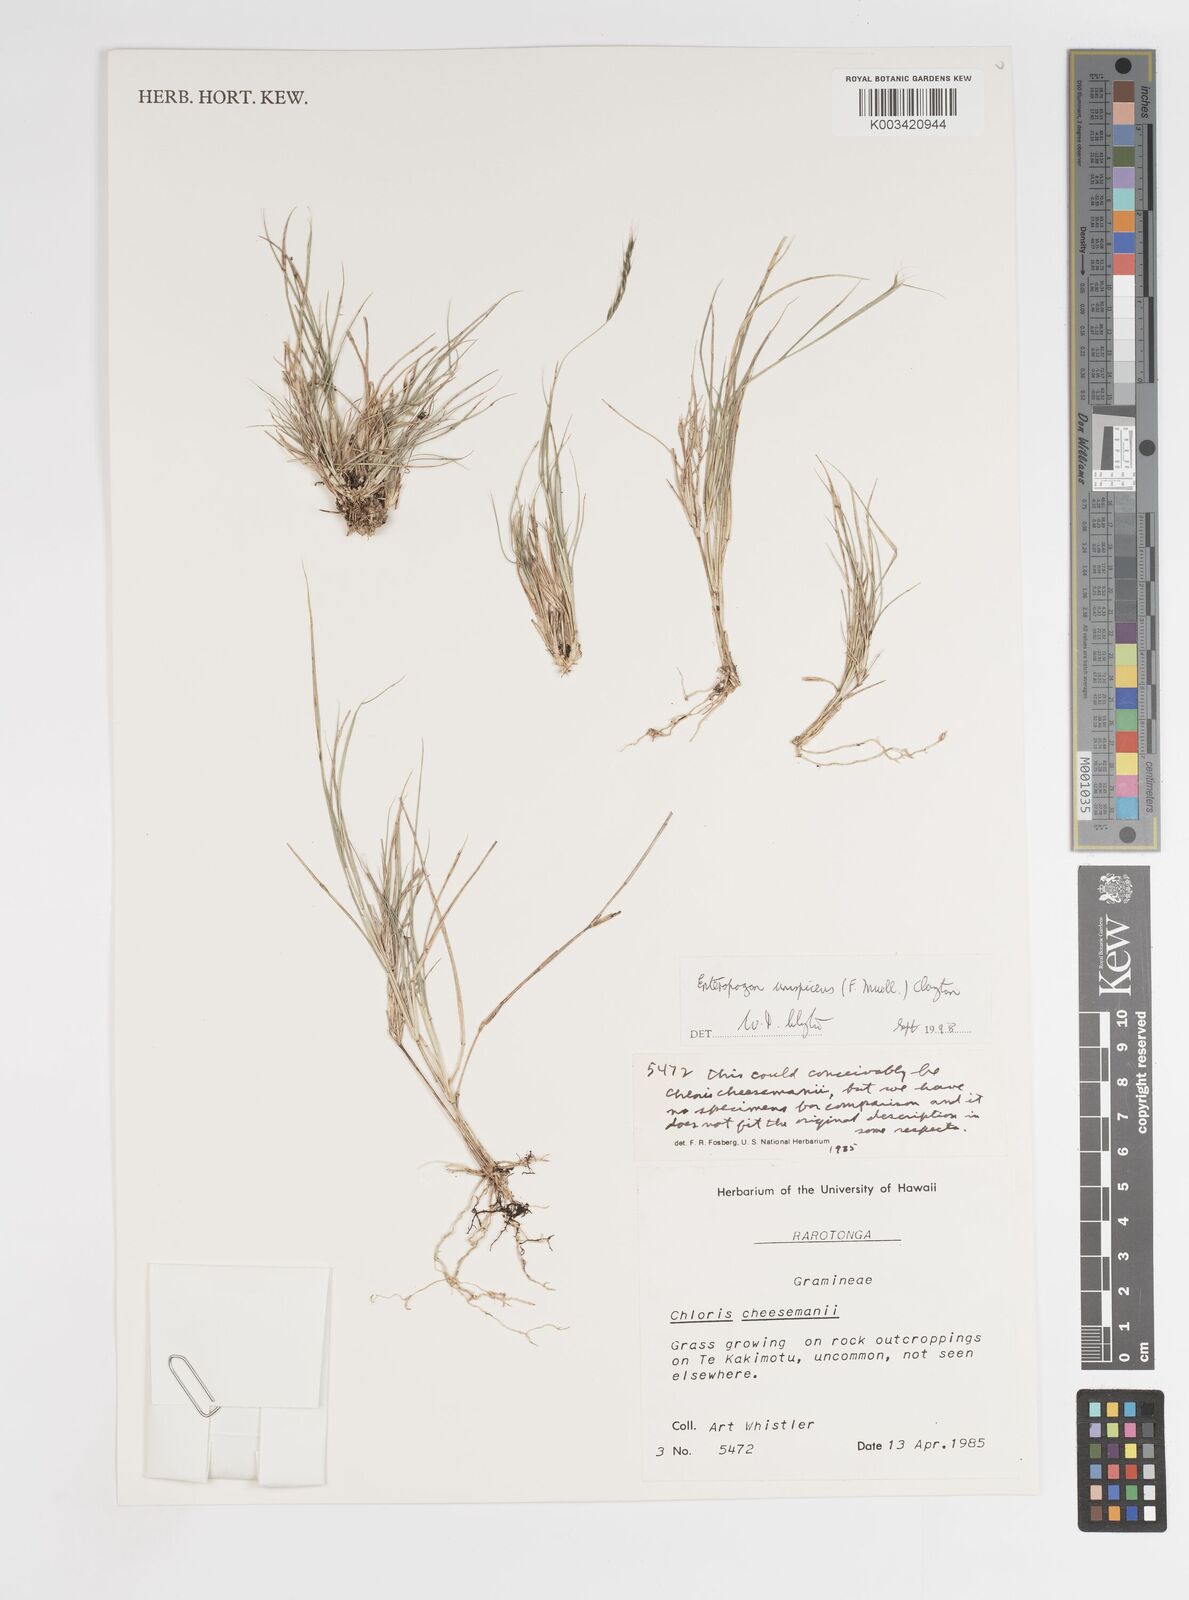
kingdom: Plantae
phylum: Tracheophyta
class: Liliopsida
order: Poales
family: Poaceae
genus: Enteropogon
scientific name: Enteropogon unispiceus
